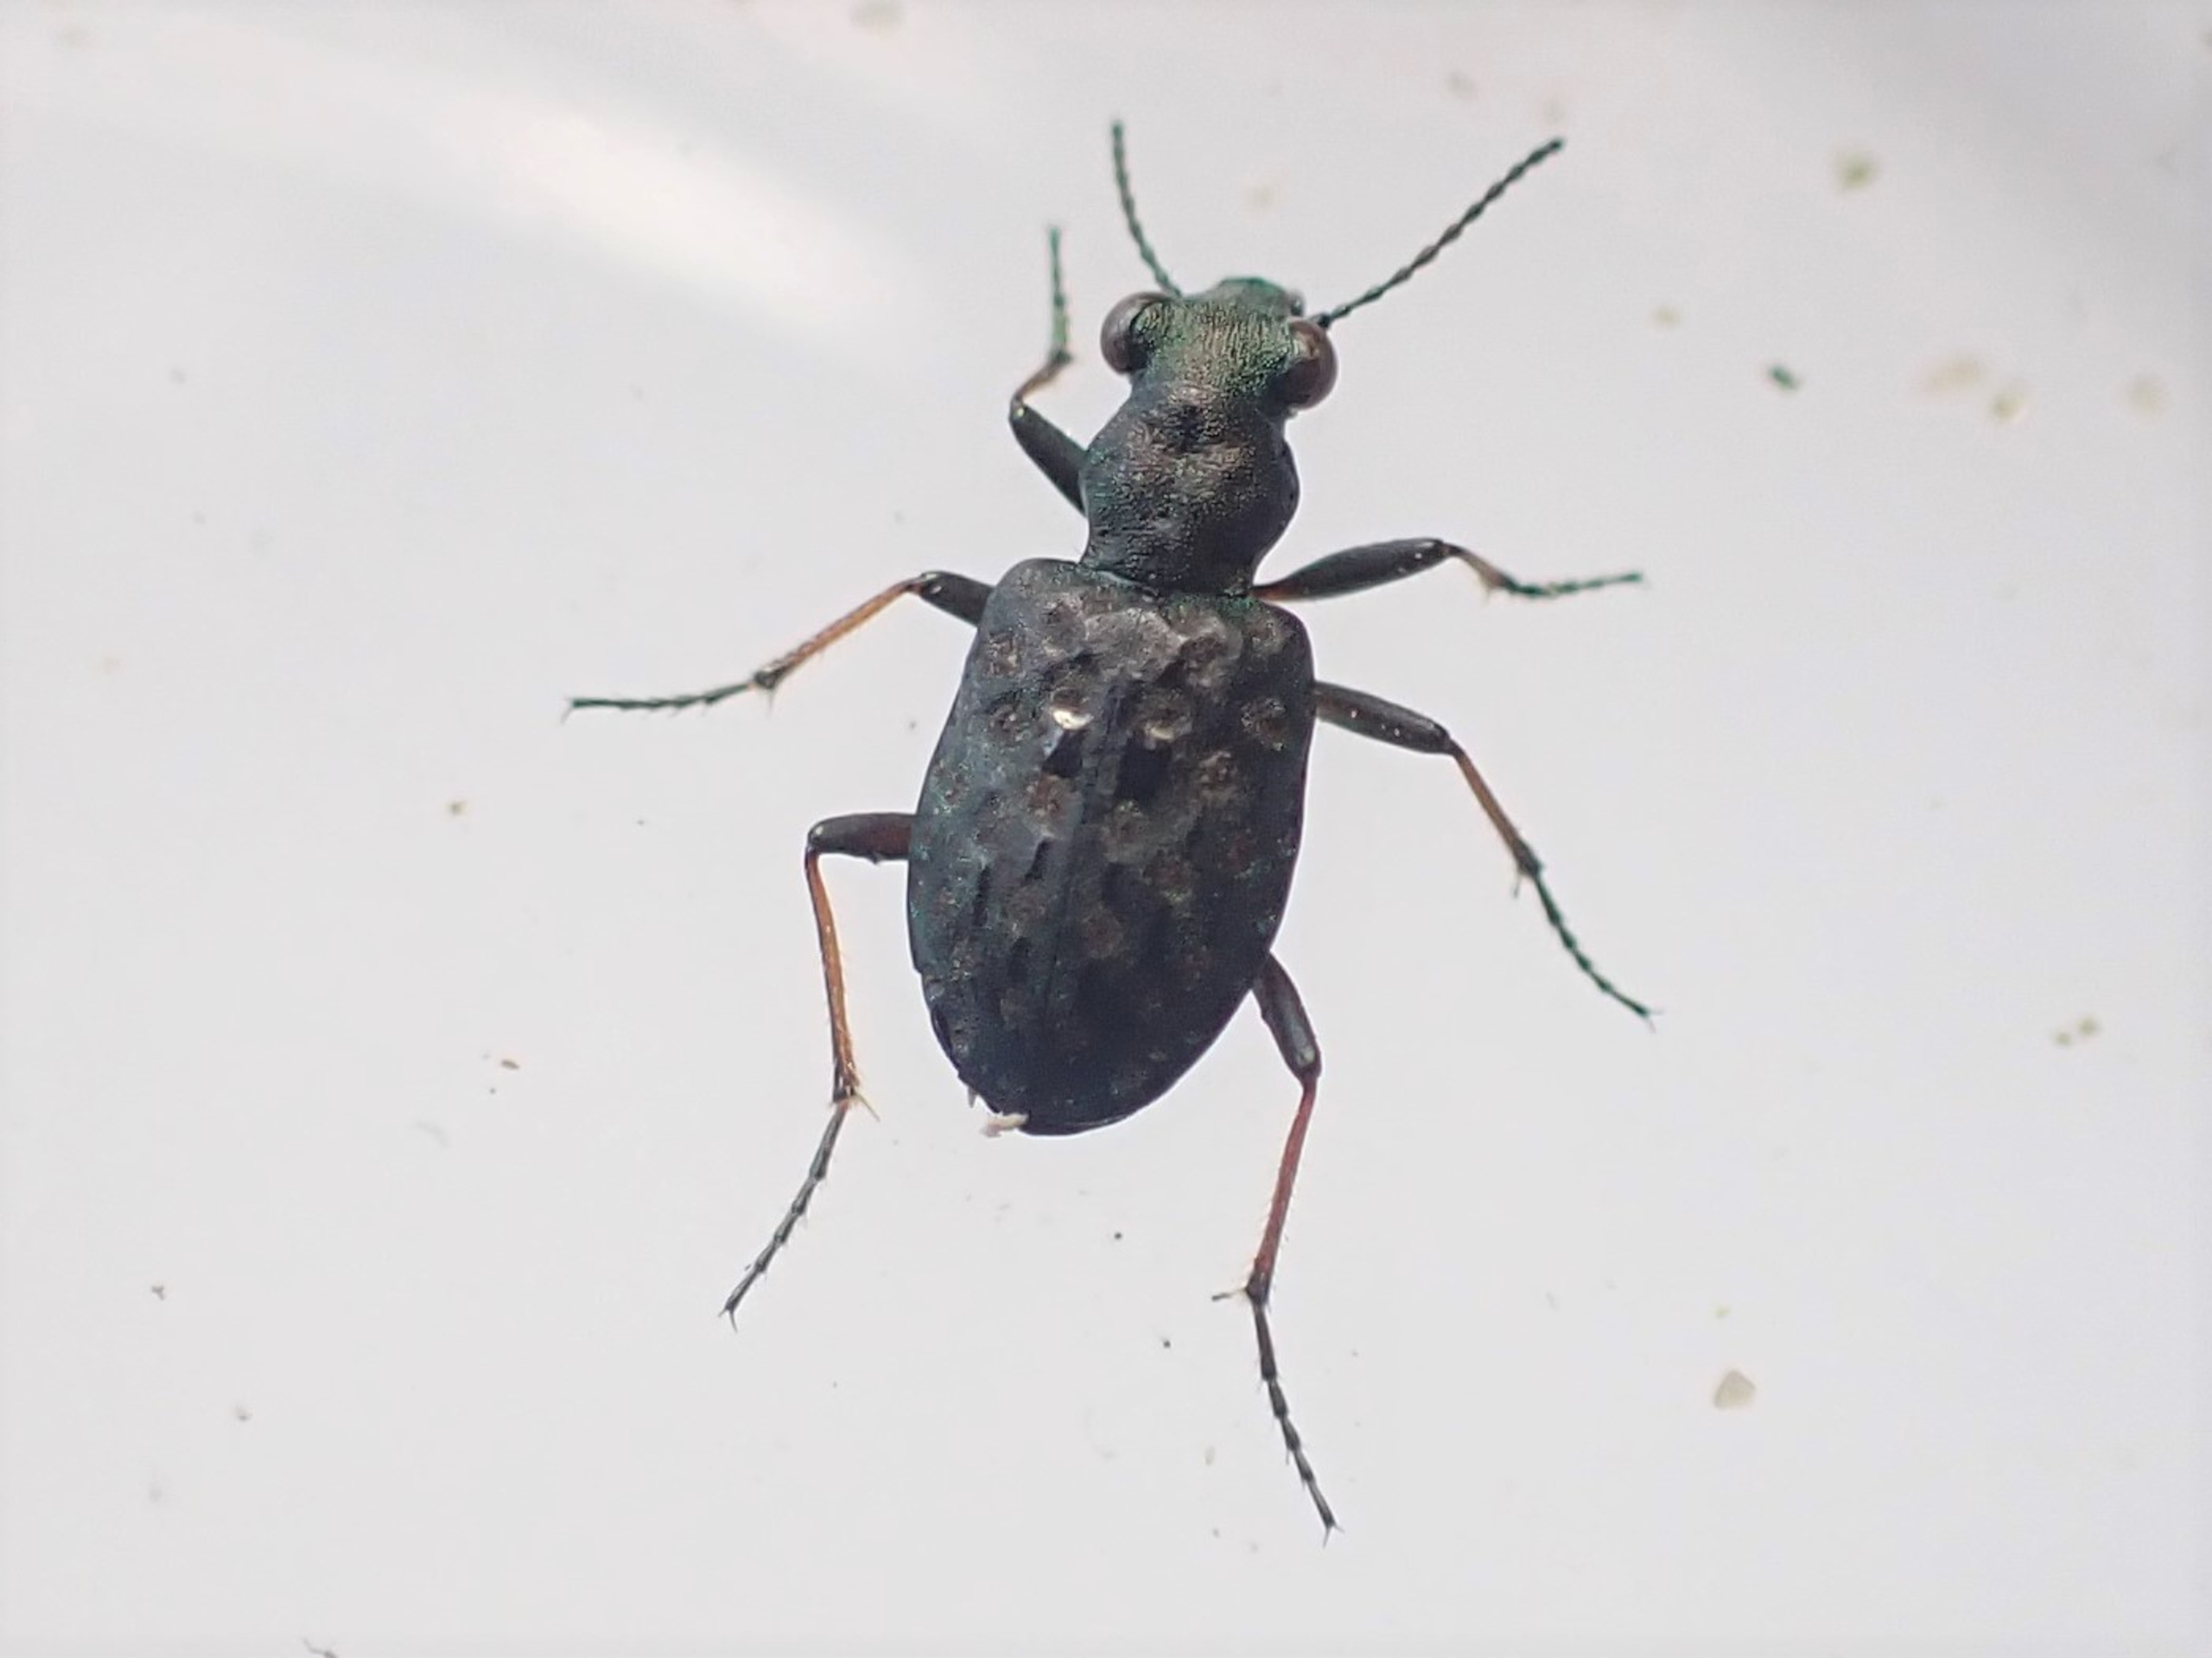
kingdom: Animalia
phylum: Arthropoda
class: Insecta
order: Coleoptera
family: Carabidae
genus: Elaphrus
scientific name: Elaphrus riparius
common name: Grøn øjenløber
